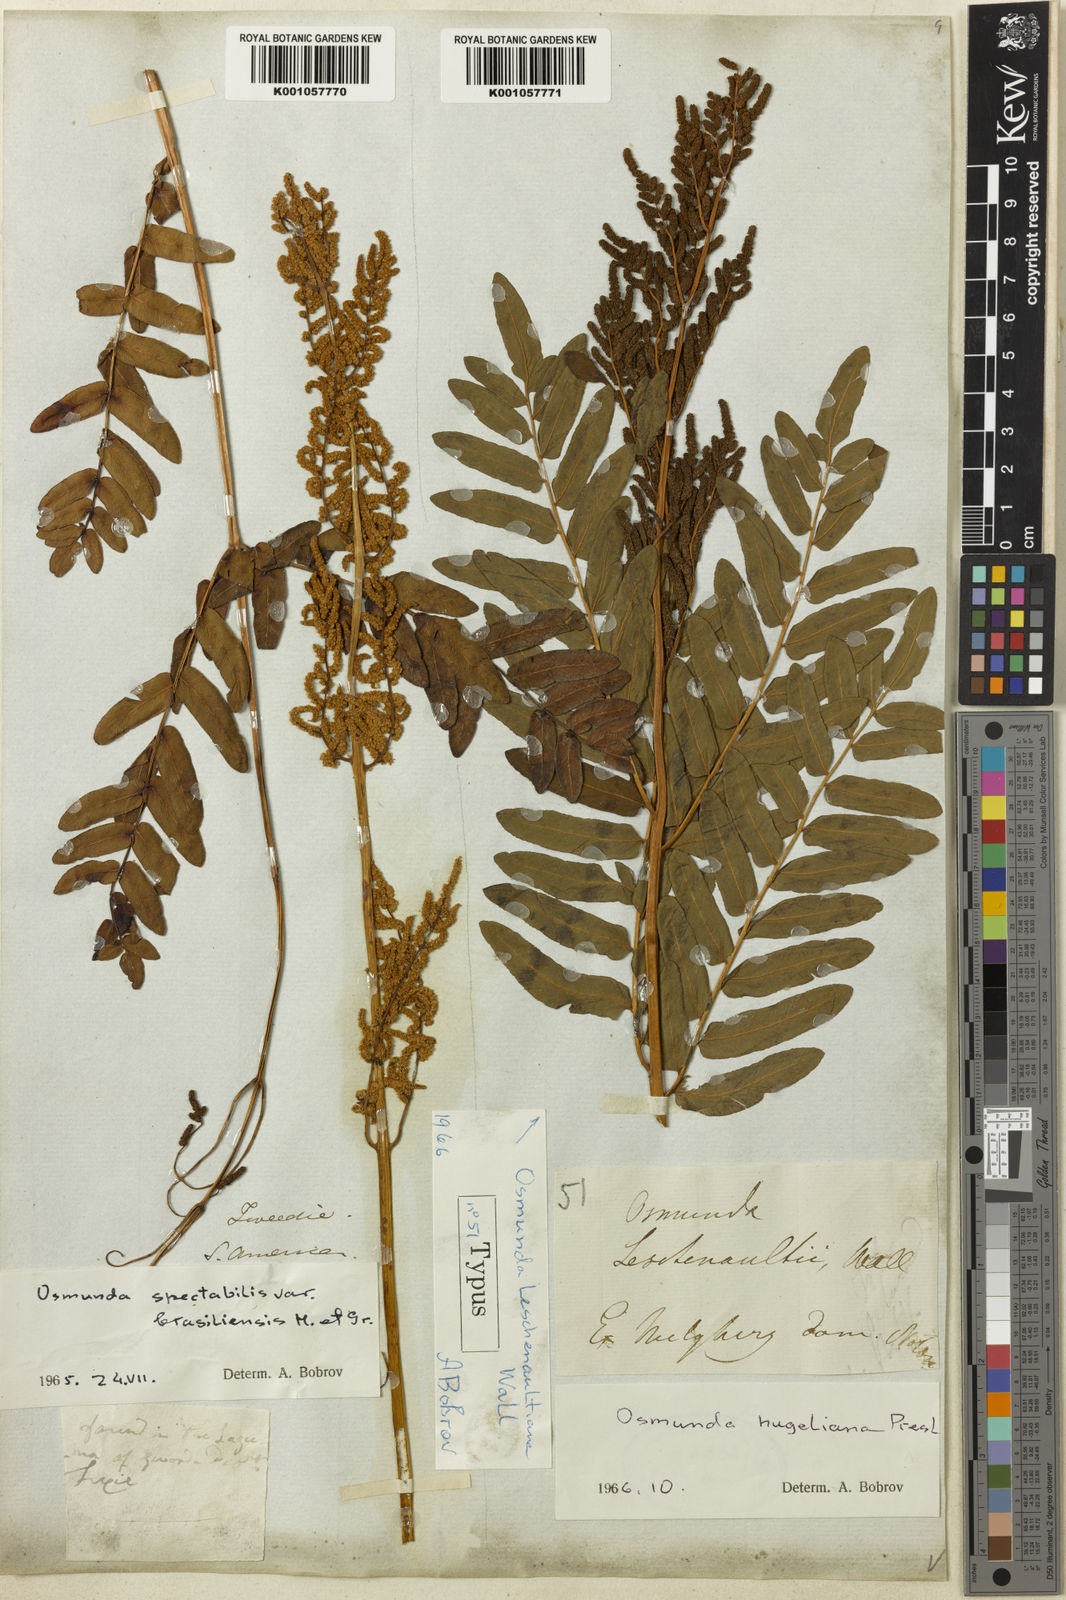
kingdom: Plantae
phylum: Tracheophyta
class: Polypodiopsida
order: Osmundales
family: Osmundaceae
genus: Osmunda
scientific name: Osmunda acuta
